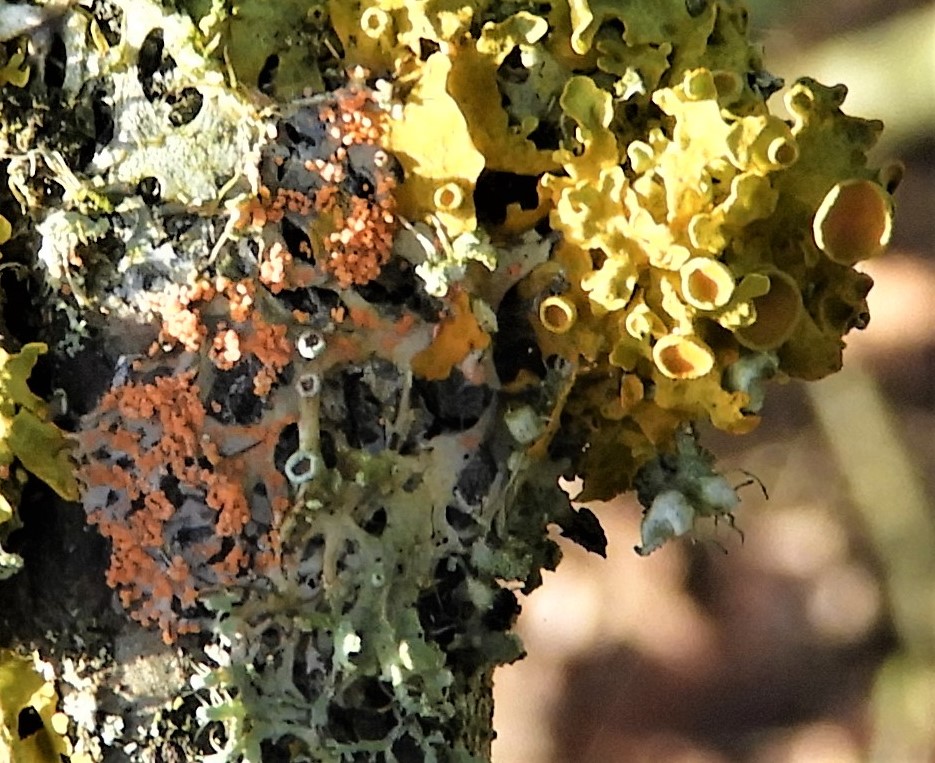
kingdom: Fungi
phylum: Basidiomycota
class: Agaricomycetes
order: Corticiales
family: Corticiaceae
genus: Erythricium
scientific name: Erythricium aurantiacum
